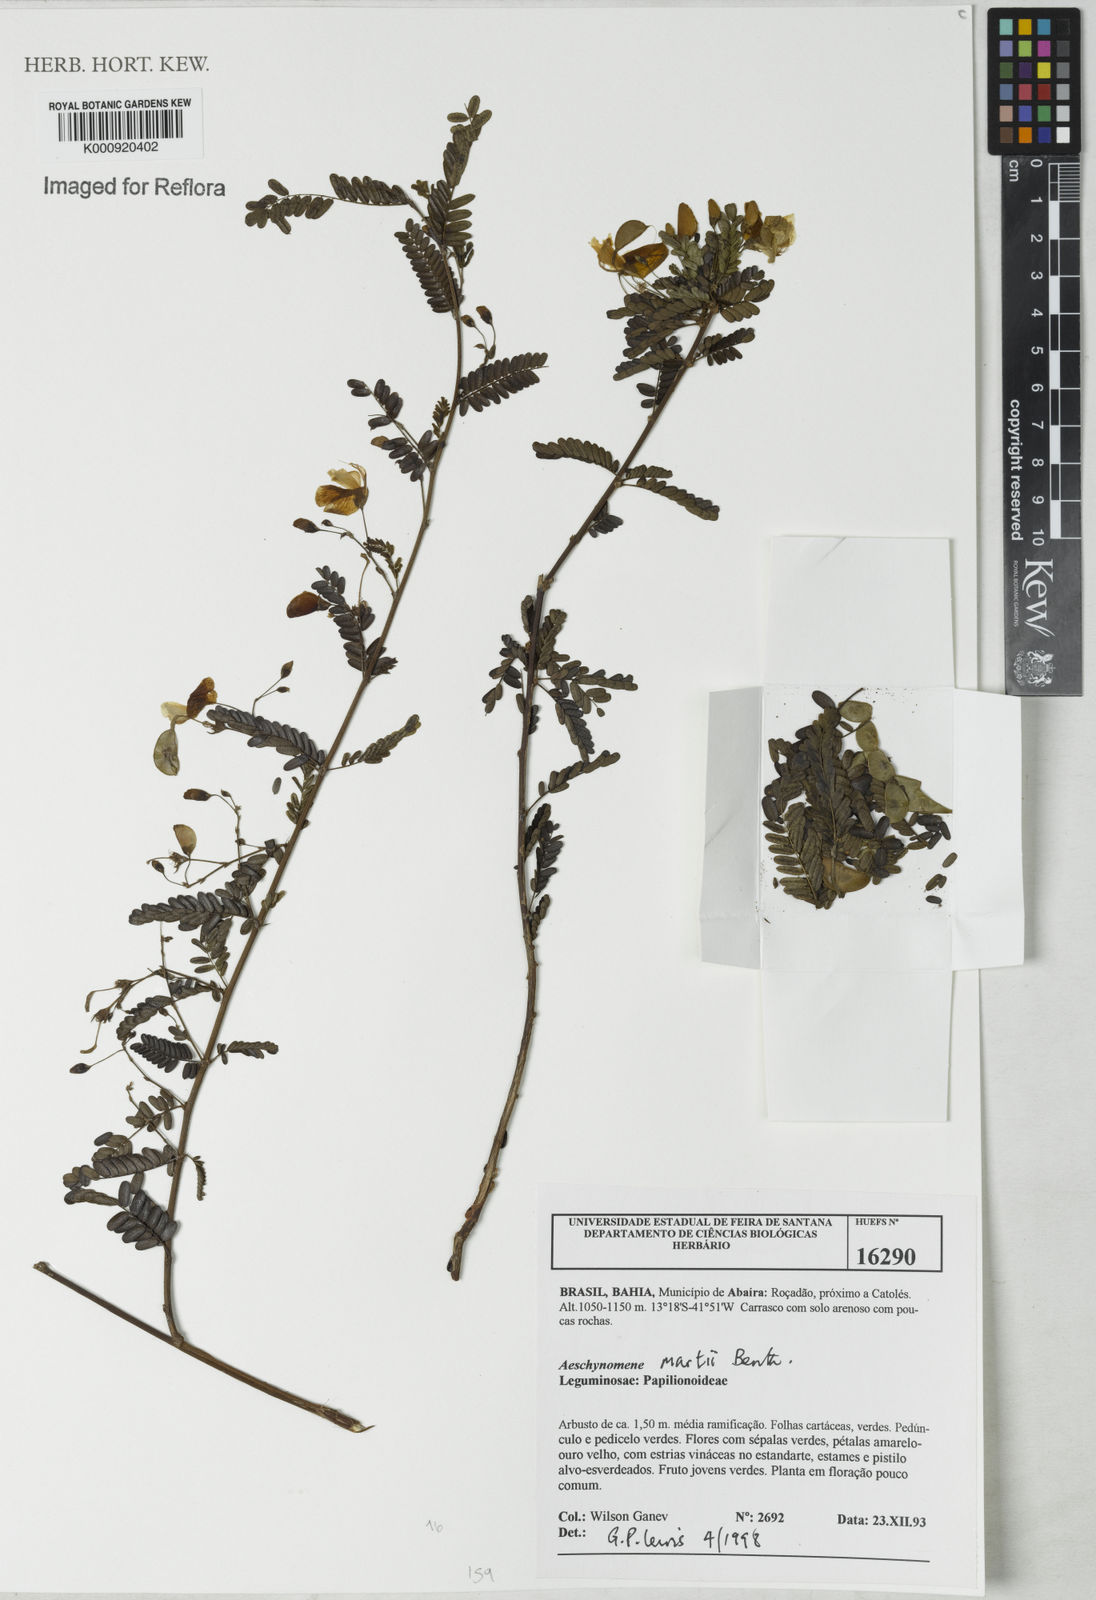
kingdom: Plantae
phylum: Tracheophyta
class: Magnoliopsida
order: Fabales
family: Fabaceae
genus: Ctenodon
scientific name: Ctenodon martii
